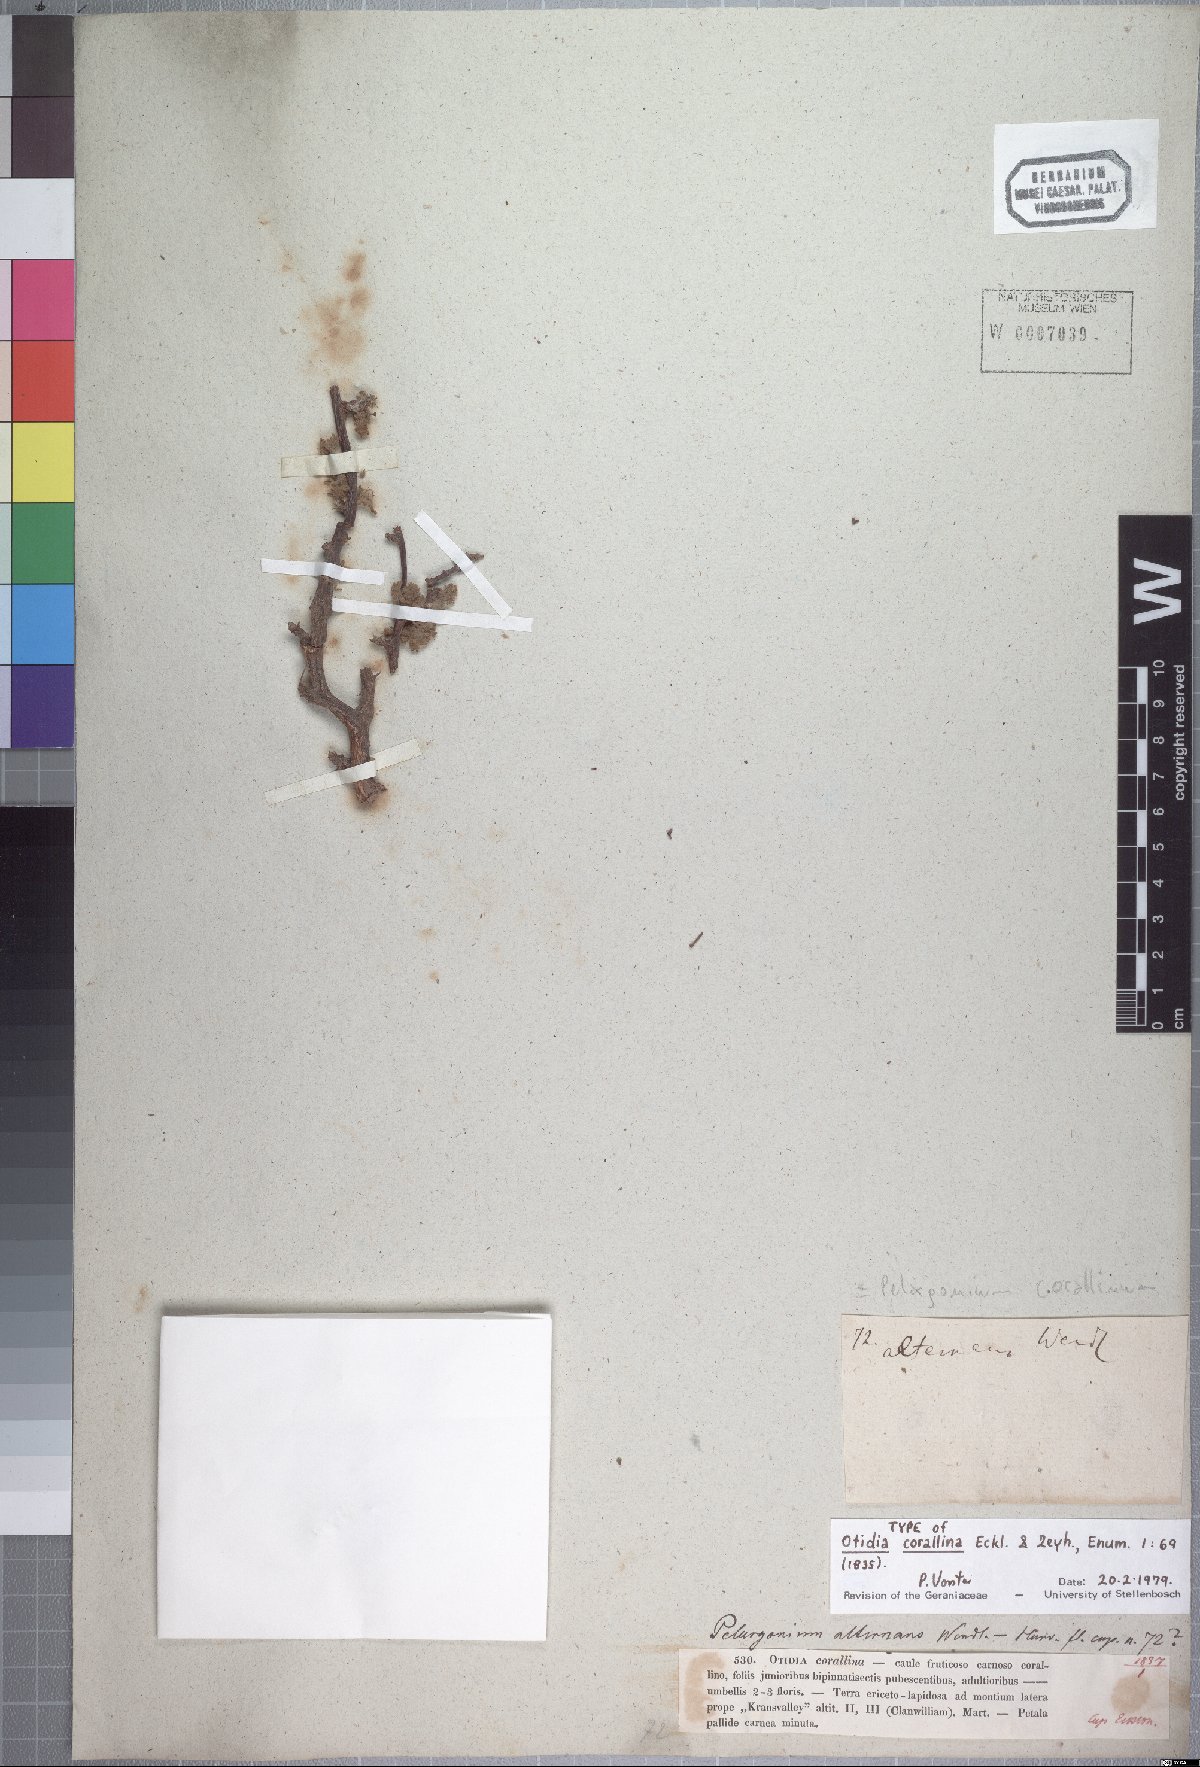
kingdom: Plantae
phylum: Tracheophyta
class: Magnoliopsida
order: Geraniales
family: Geraniaceae
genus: Pelargonium
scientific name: Pelargonium alternans
